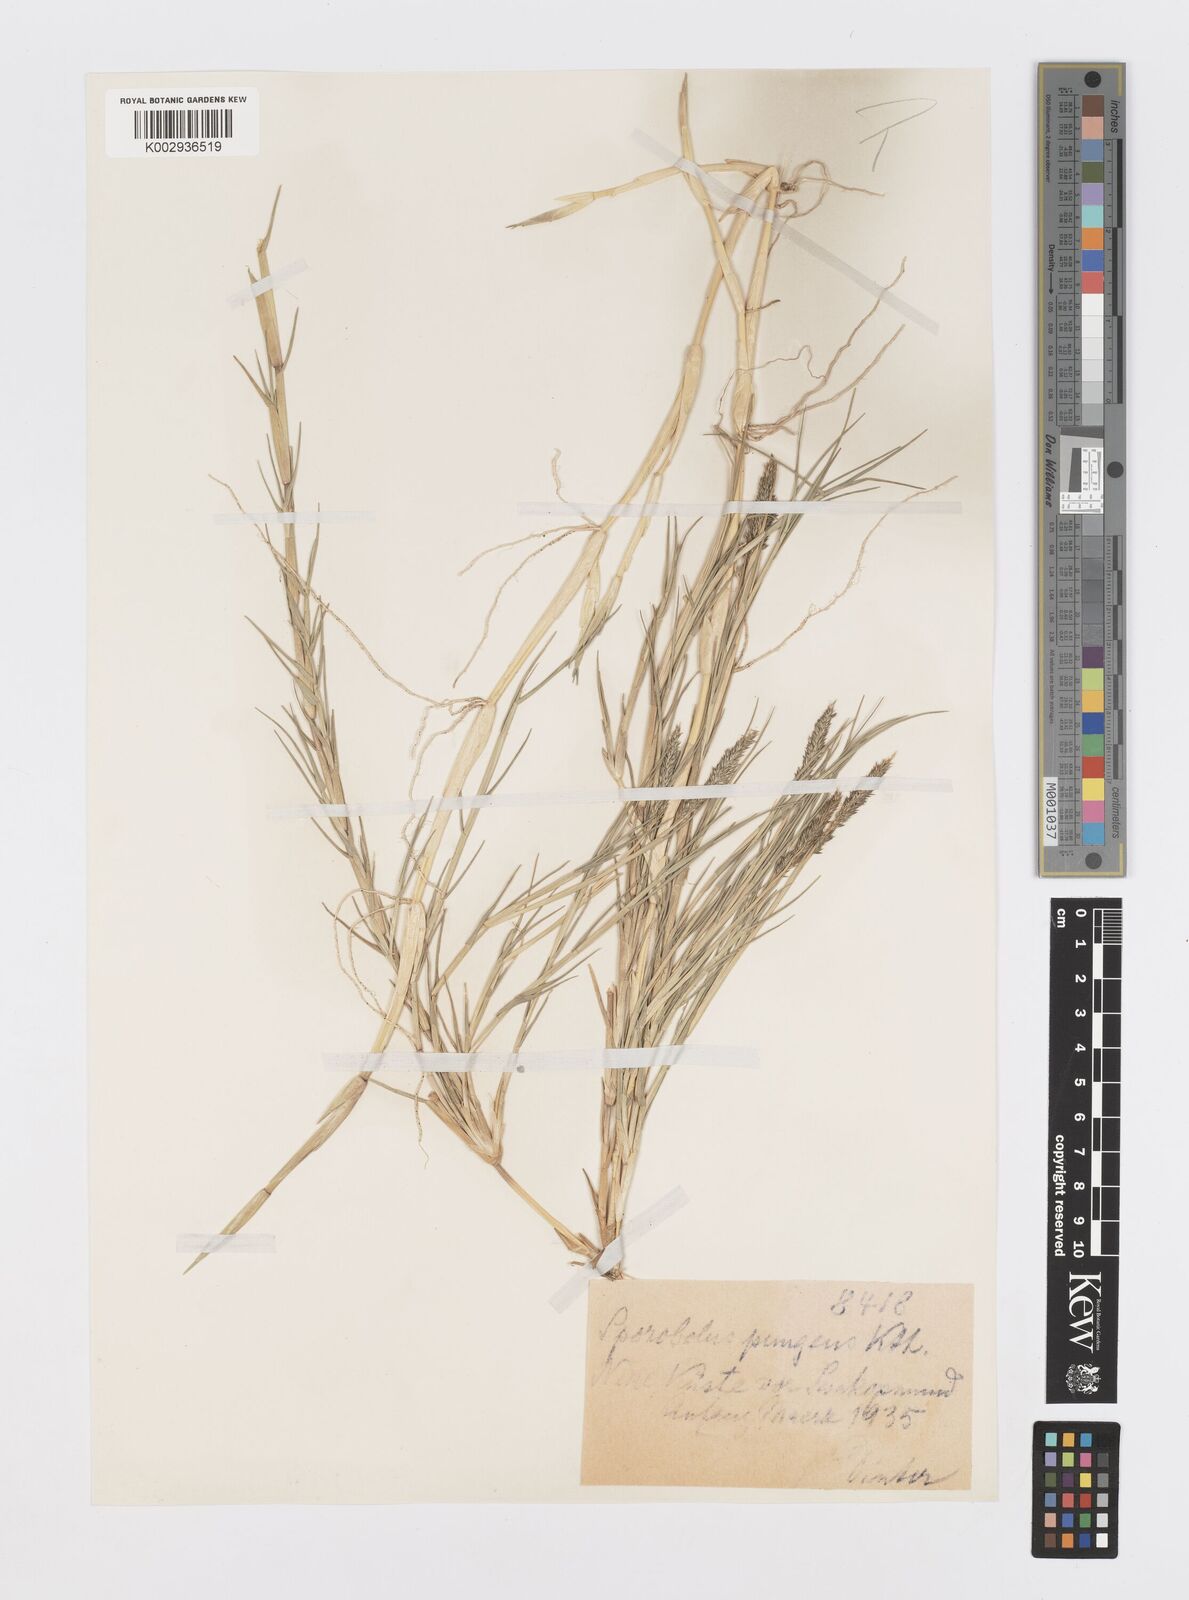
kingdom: Plantae
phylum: Tracheophyta
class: Liliopsida
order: Poales
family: Poaceae
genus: Sporobolus
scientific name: Sporobolus virginicus
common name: Beach dropseed
